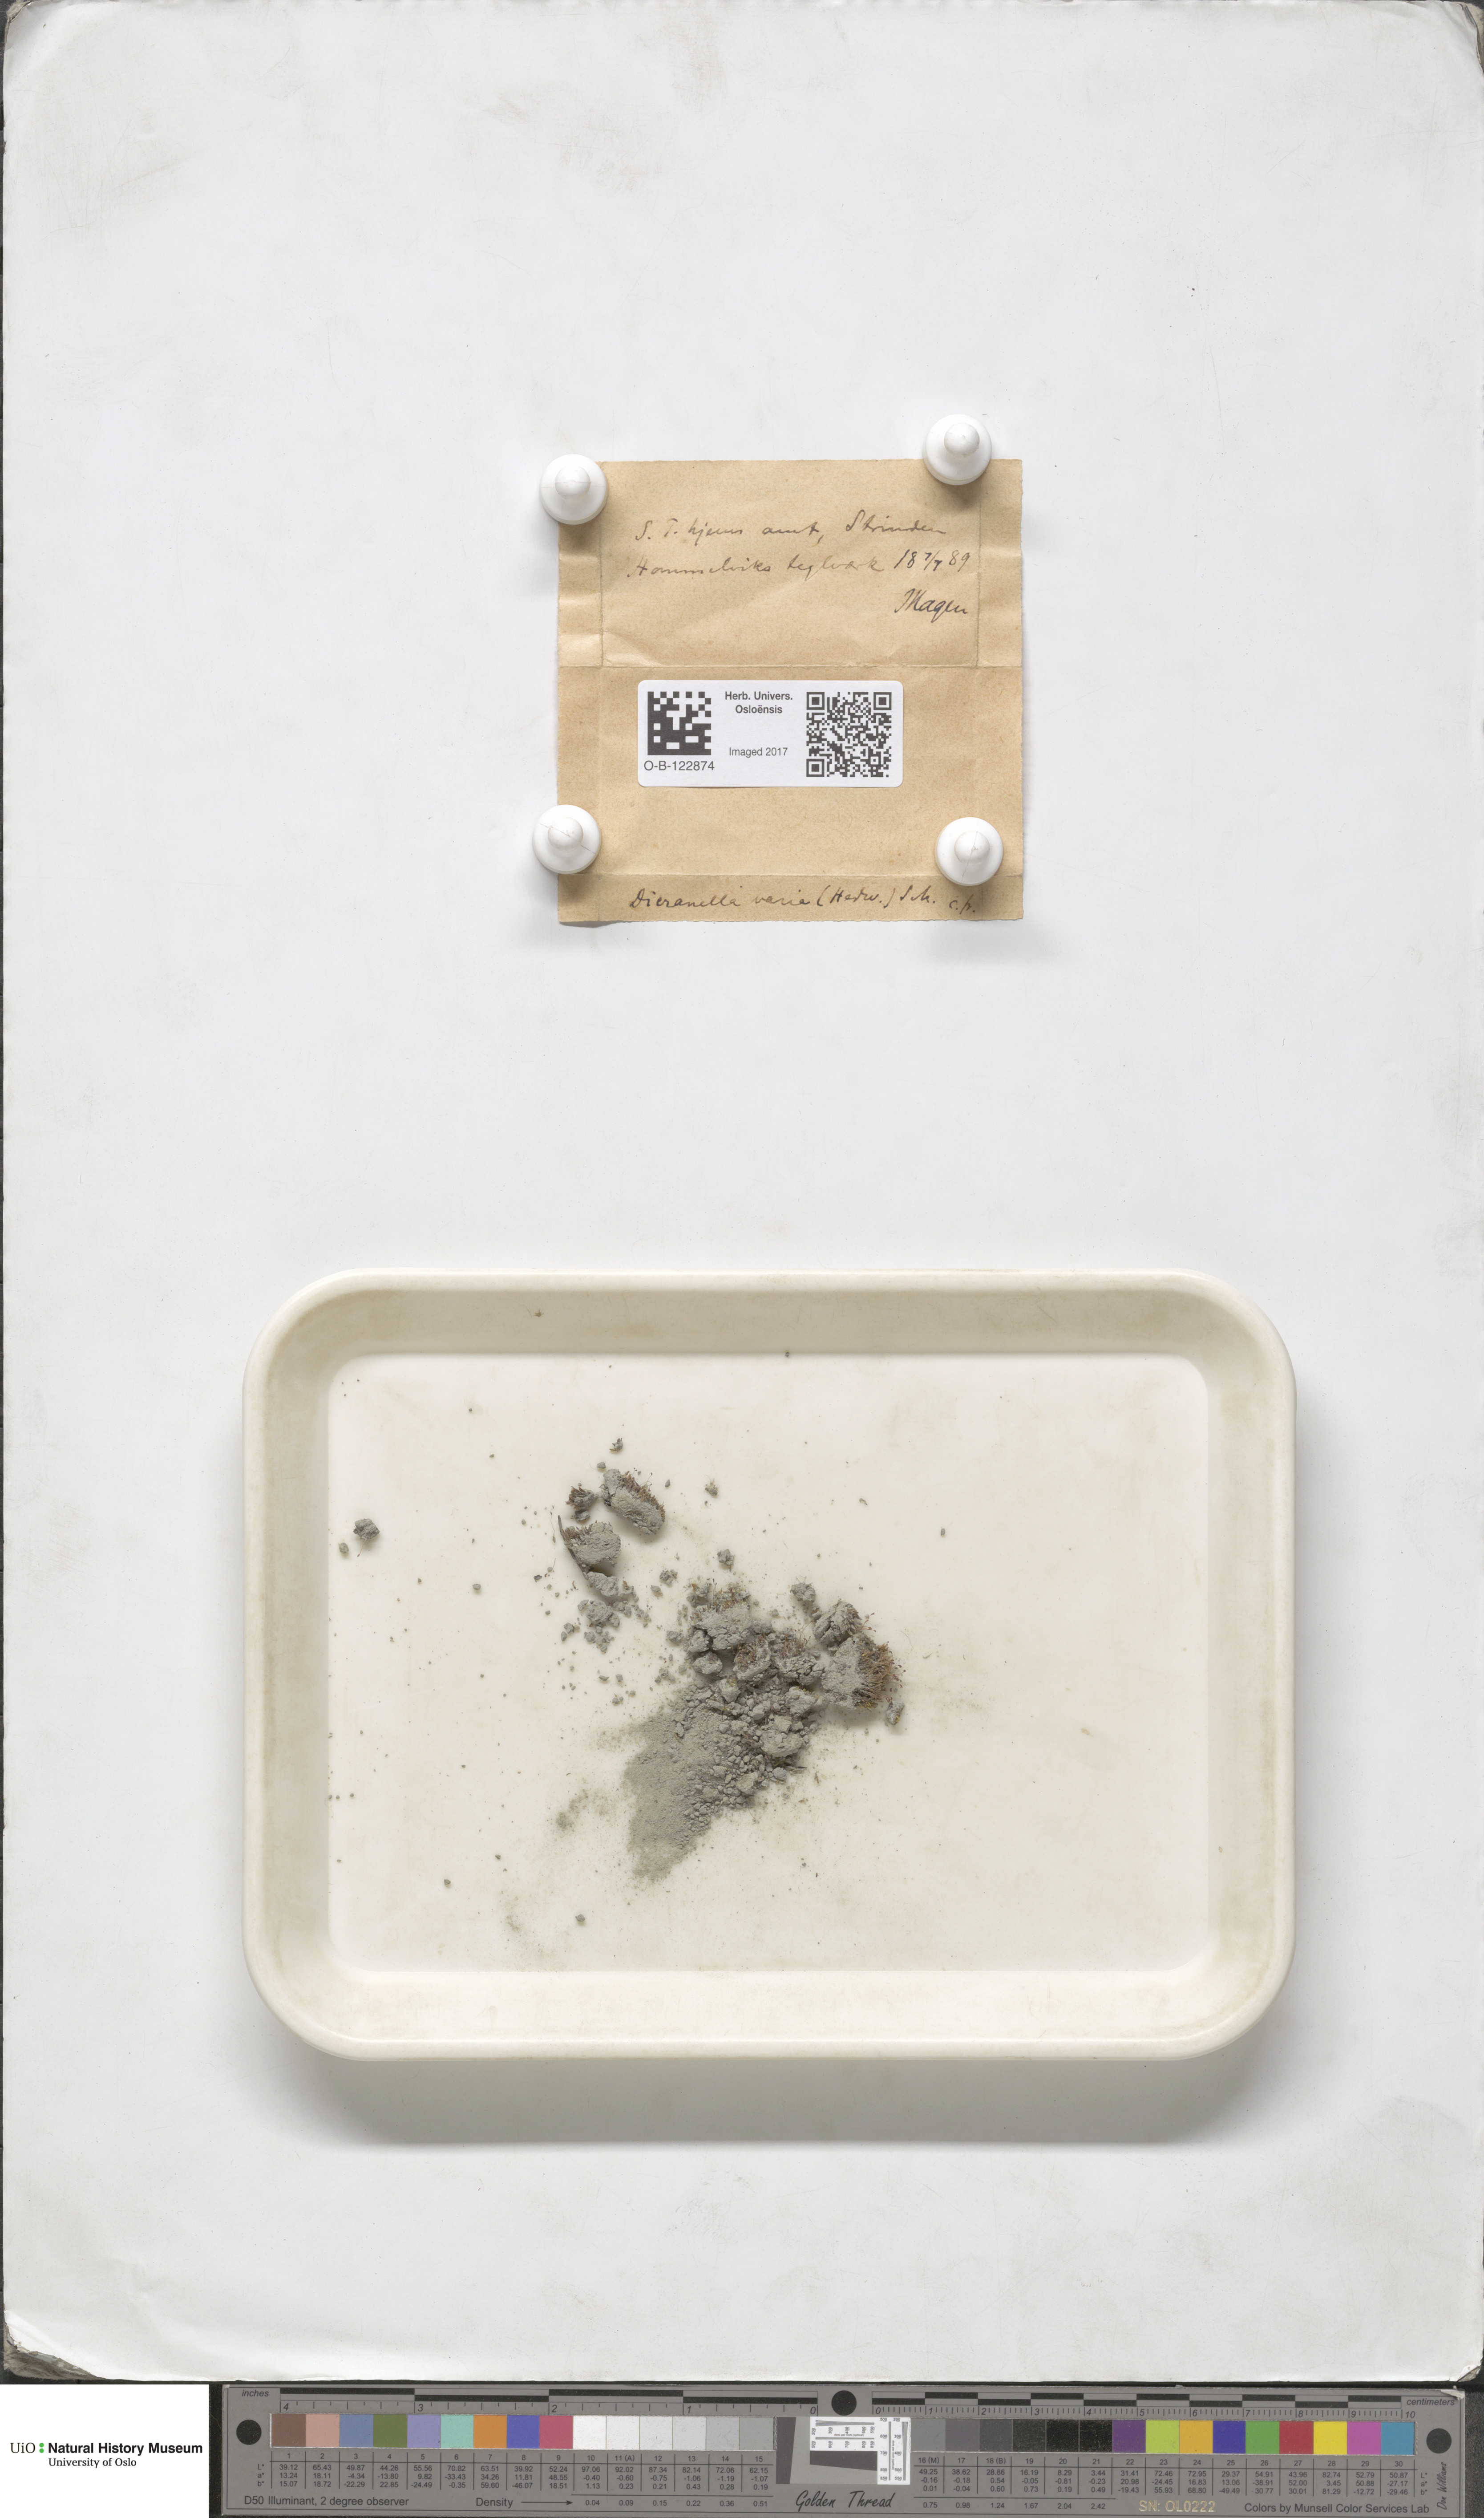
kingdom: Plantae
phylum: Bryophyta
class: Bryopsida
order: Dicranales
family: Dicranellaceae
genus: Dicranella
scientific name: Dicranella varia
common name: Variable forklet moss
